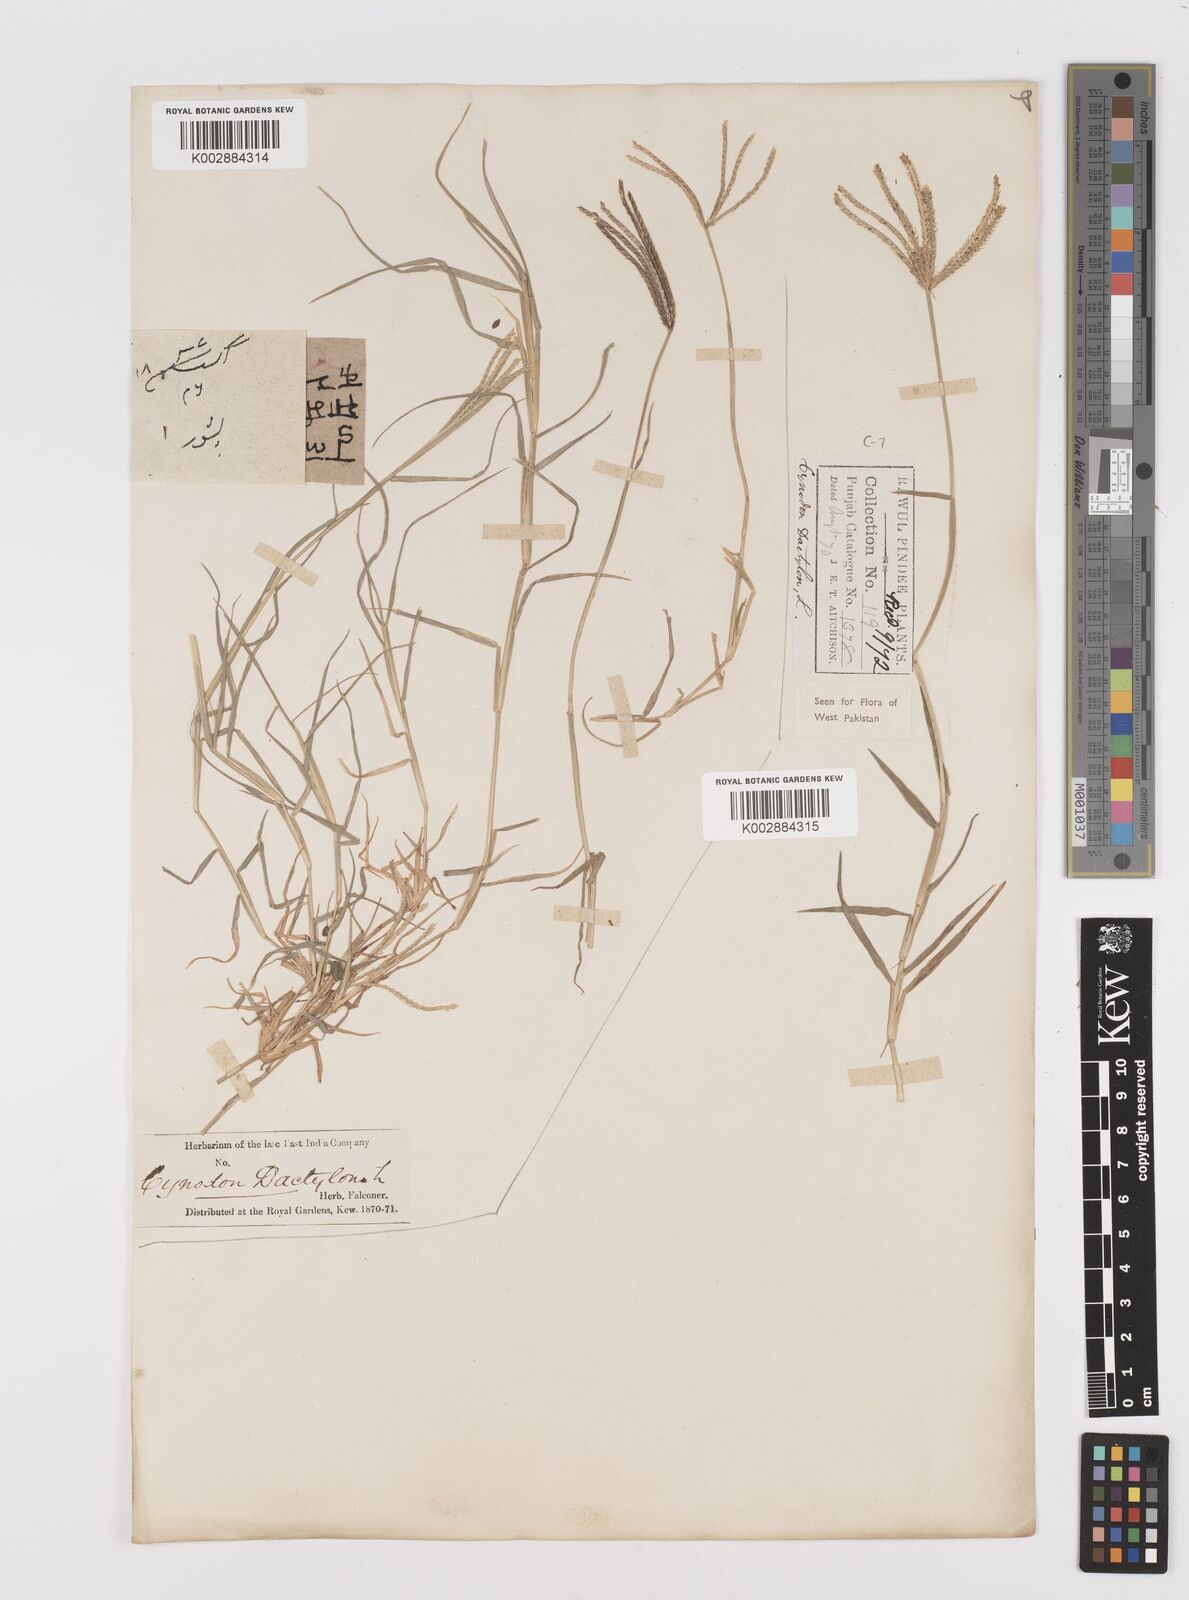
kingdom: Plantae
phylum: Tracheophyta
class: Liliopsida
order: Poales
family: Poaceae
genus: Cynodon
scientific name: Cynodon dactylon
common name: Bermuda grass
